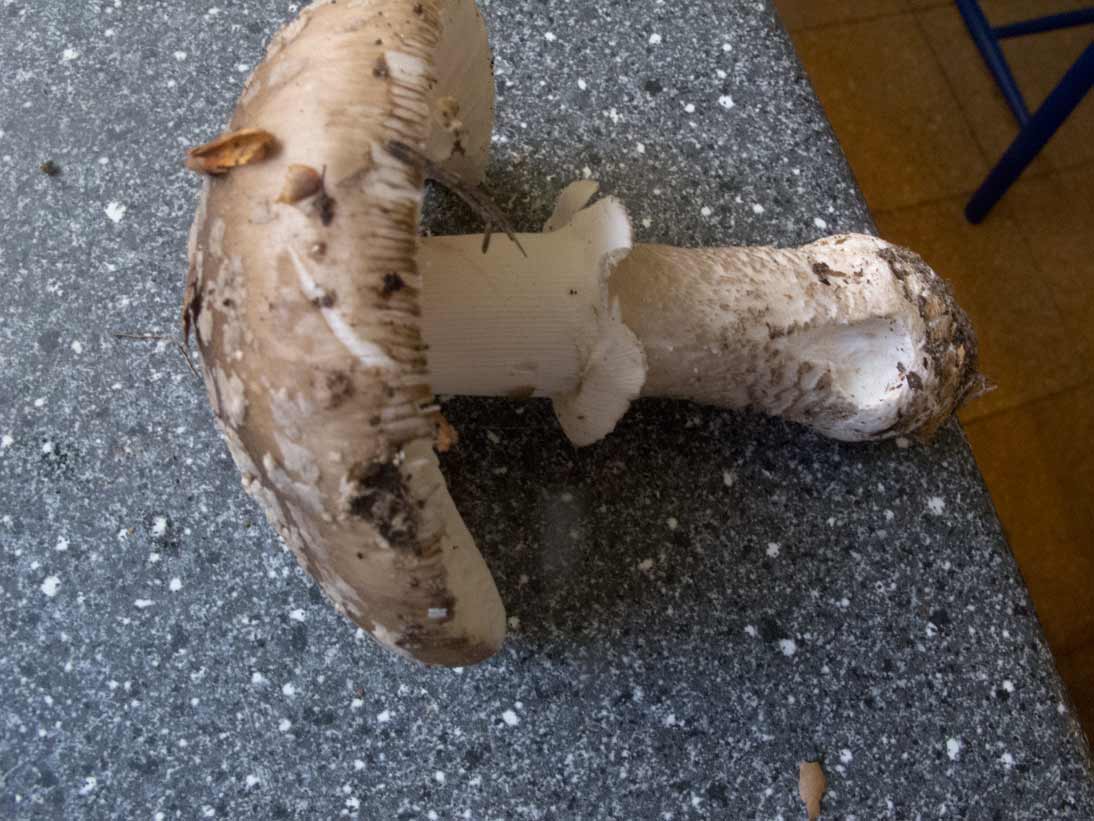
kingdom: Fungi
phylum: Basidiomycota
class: Agaricomycetes
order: Agaricales
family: Amanitaceae
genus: Amanita
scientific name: Amanita
